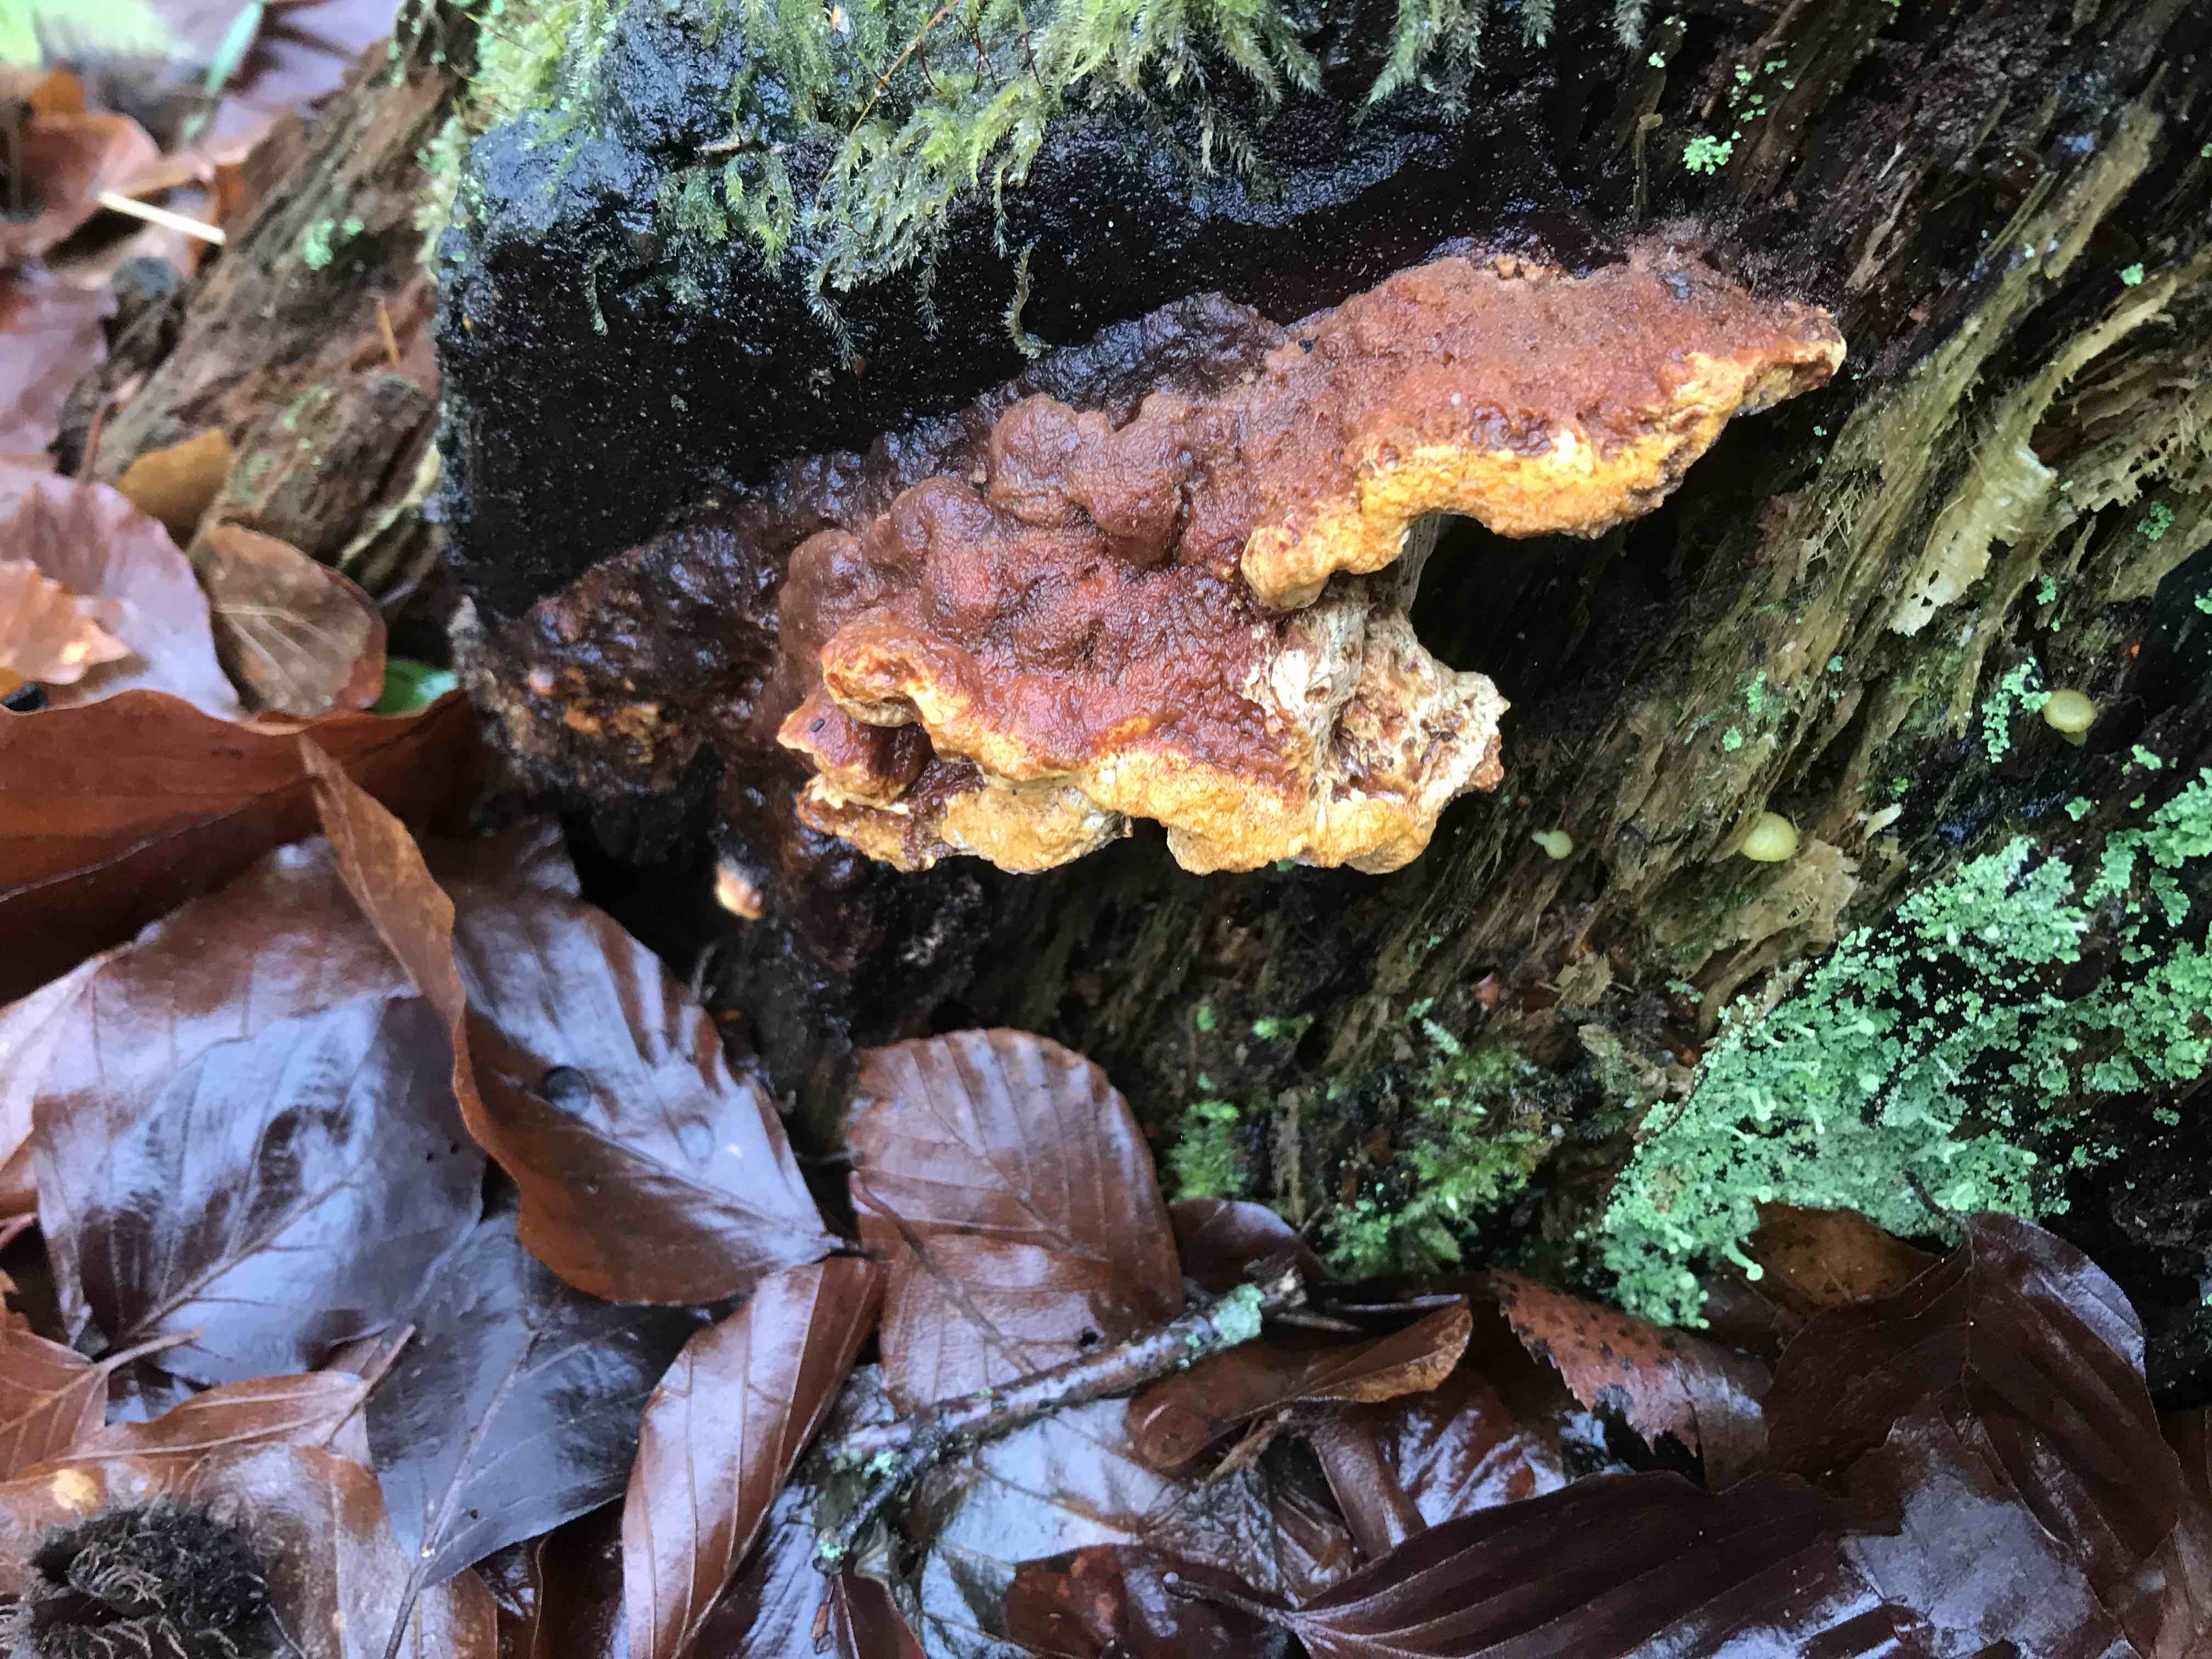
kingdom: Fungi
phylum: Basidiomycota
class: Agaricomycetes
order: Gloeophyllales
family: Gloeophyllaceae
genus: Gloeophyllum
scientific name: Gloeophyllum odoratum
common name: duftende korkhat
